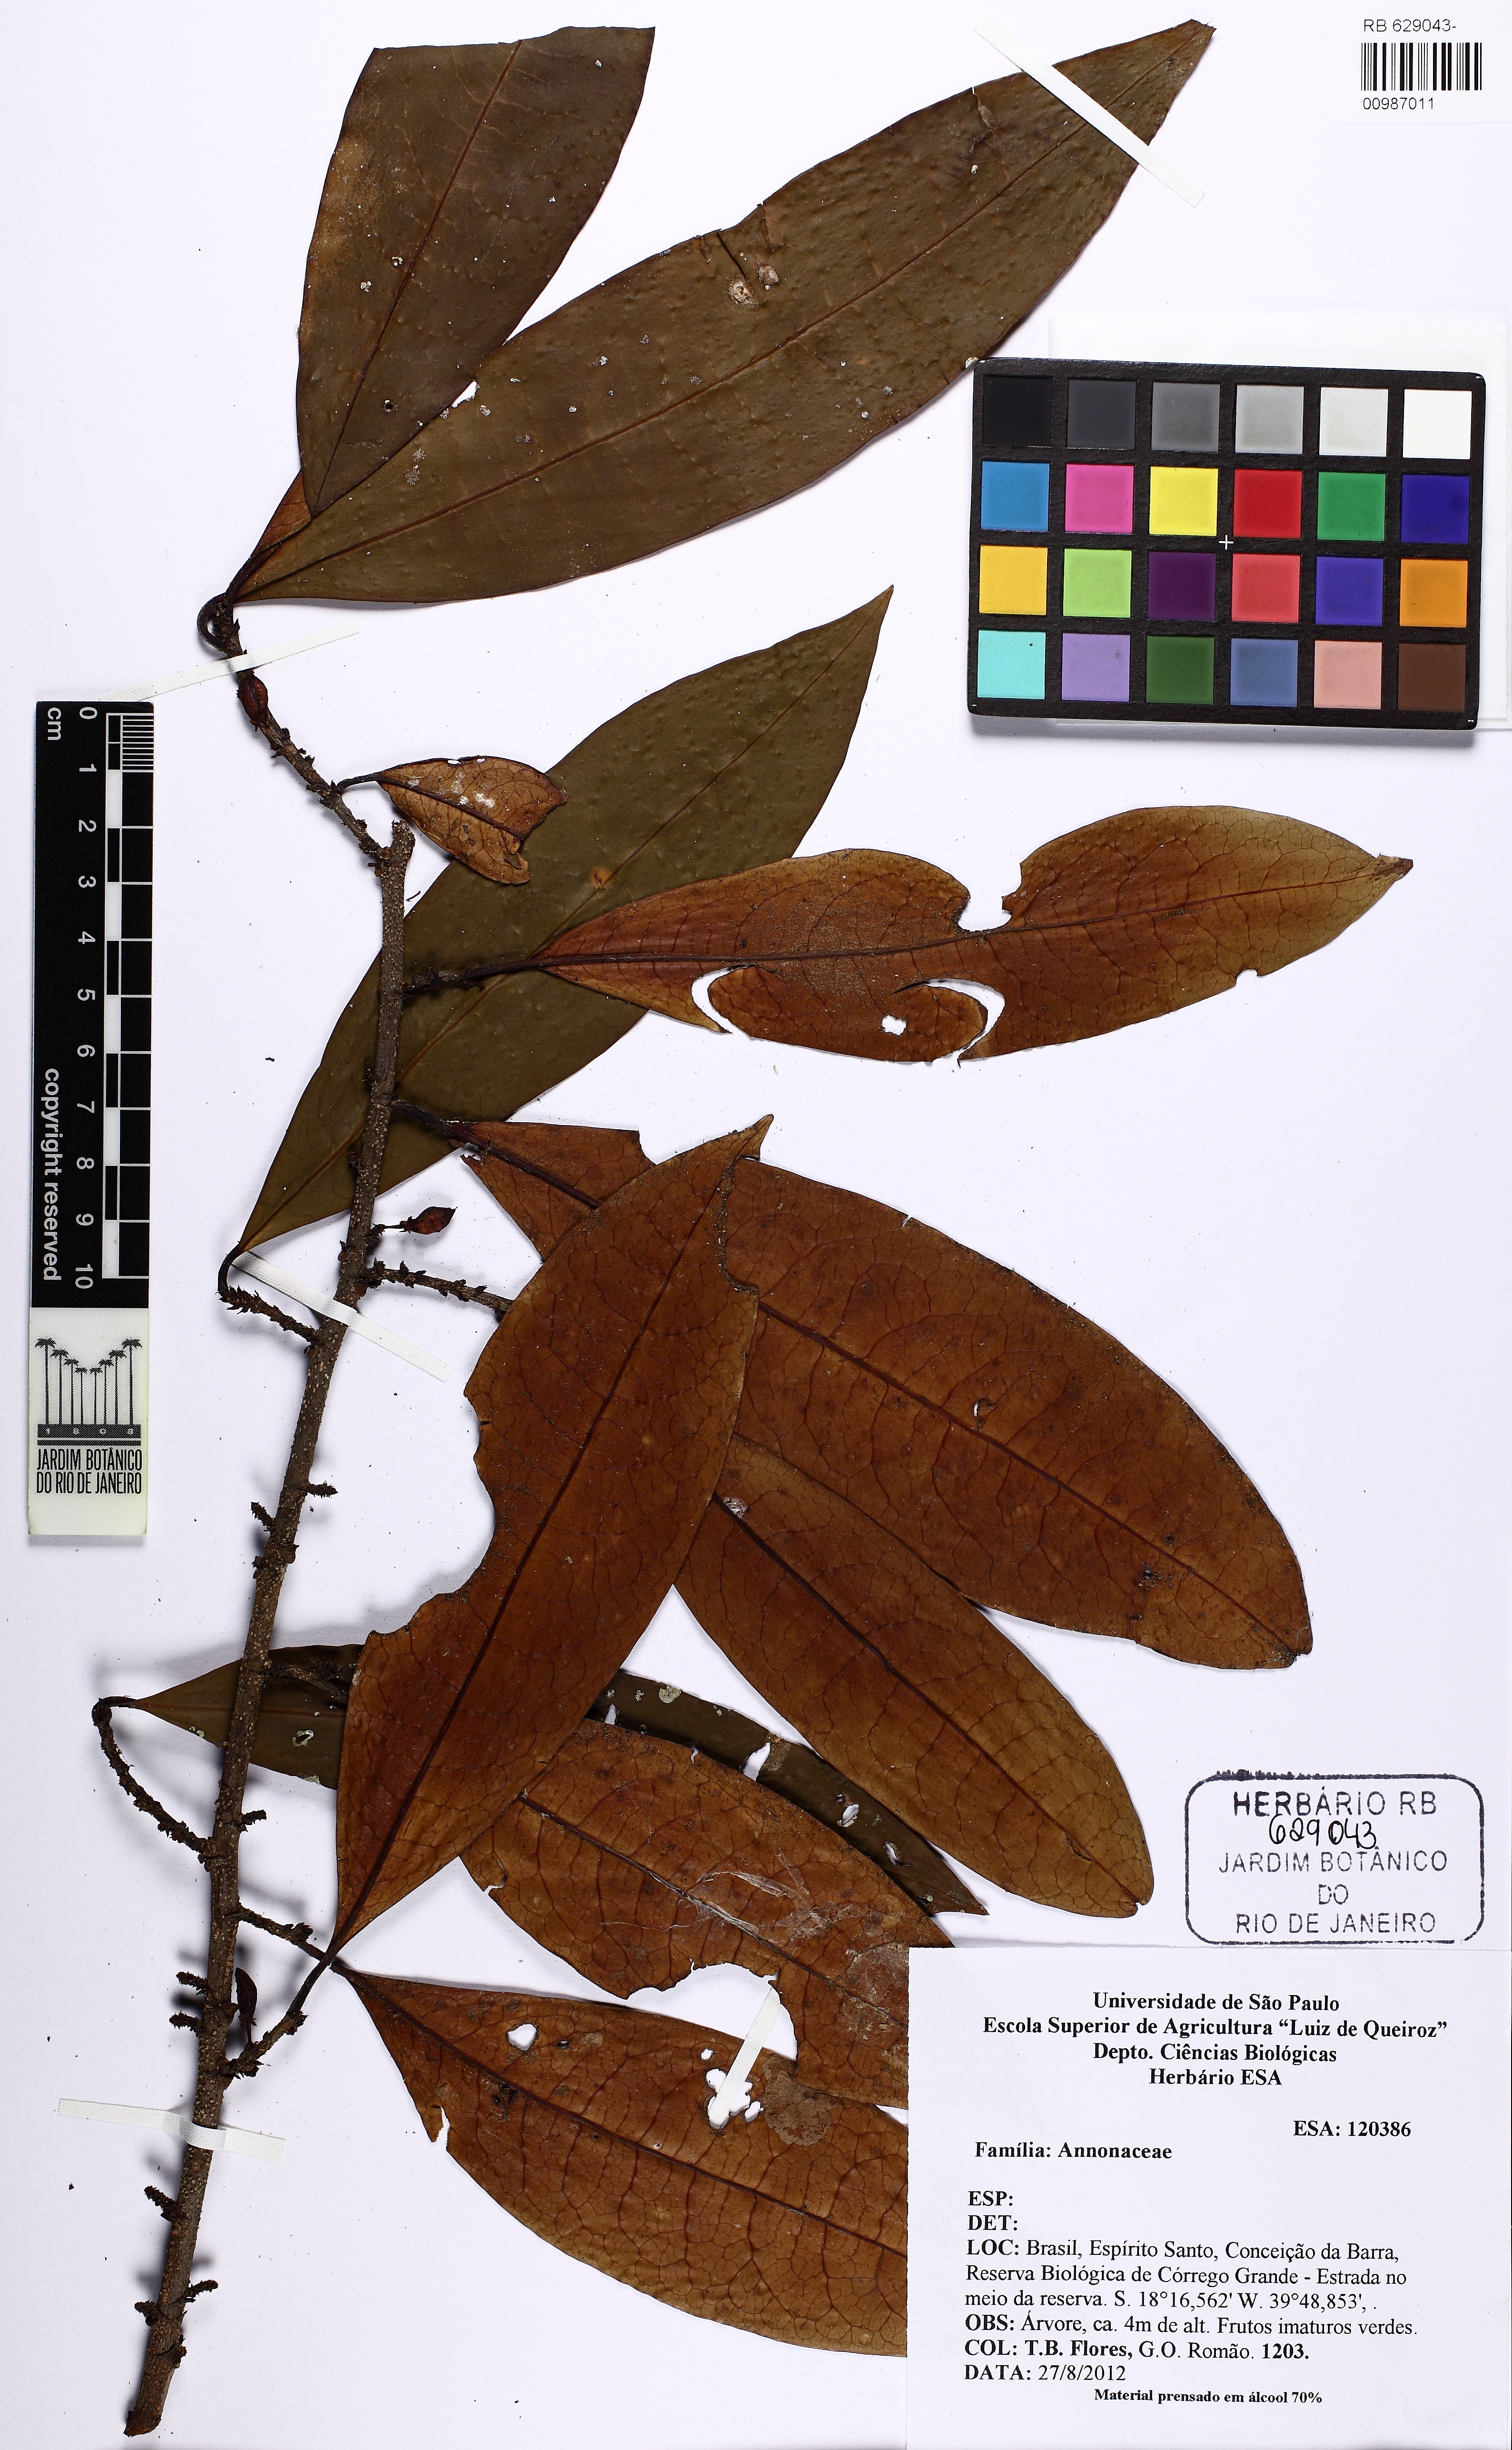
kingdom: Plantae
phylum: Tracheophyta
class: Magnoliopsida
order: Malpighiales
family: Erythroxylaceae
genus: Erythroxylum
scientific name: Erythroxylum
